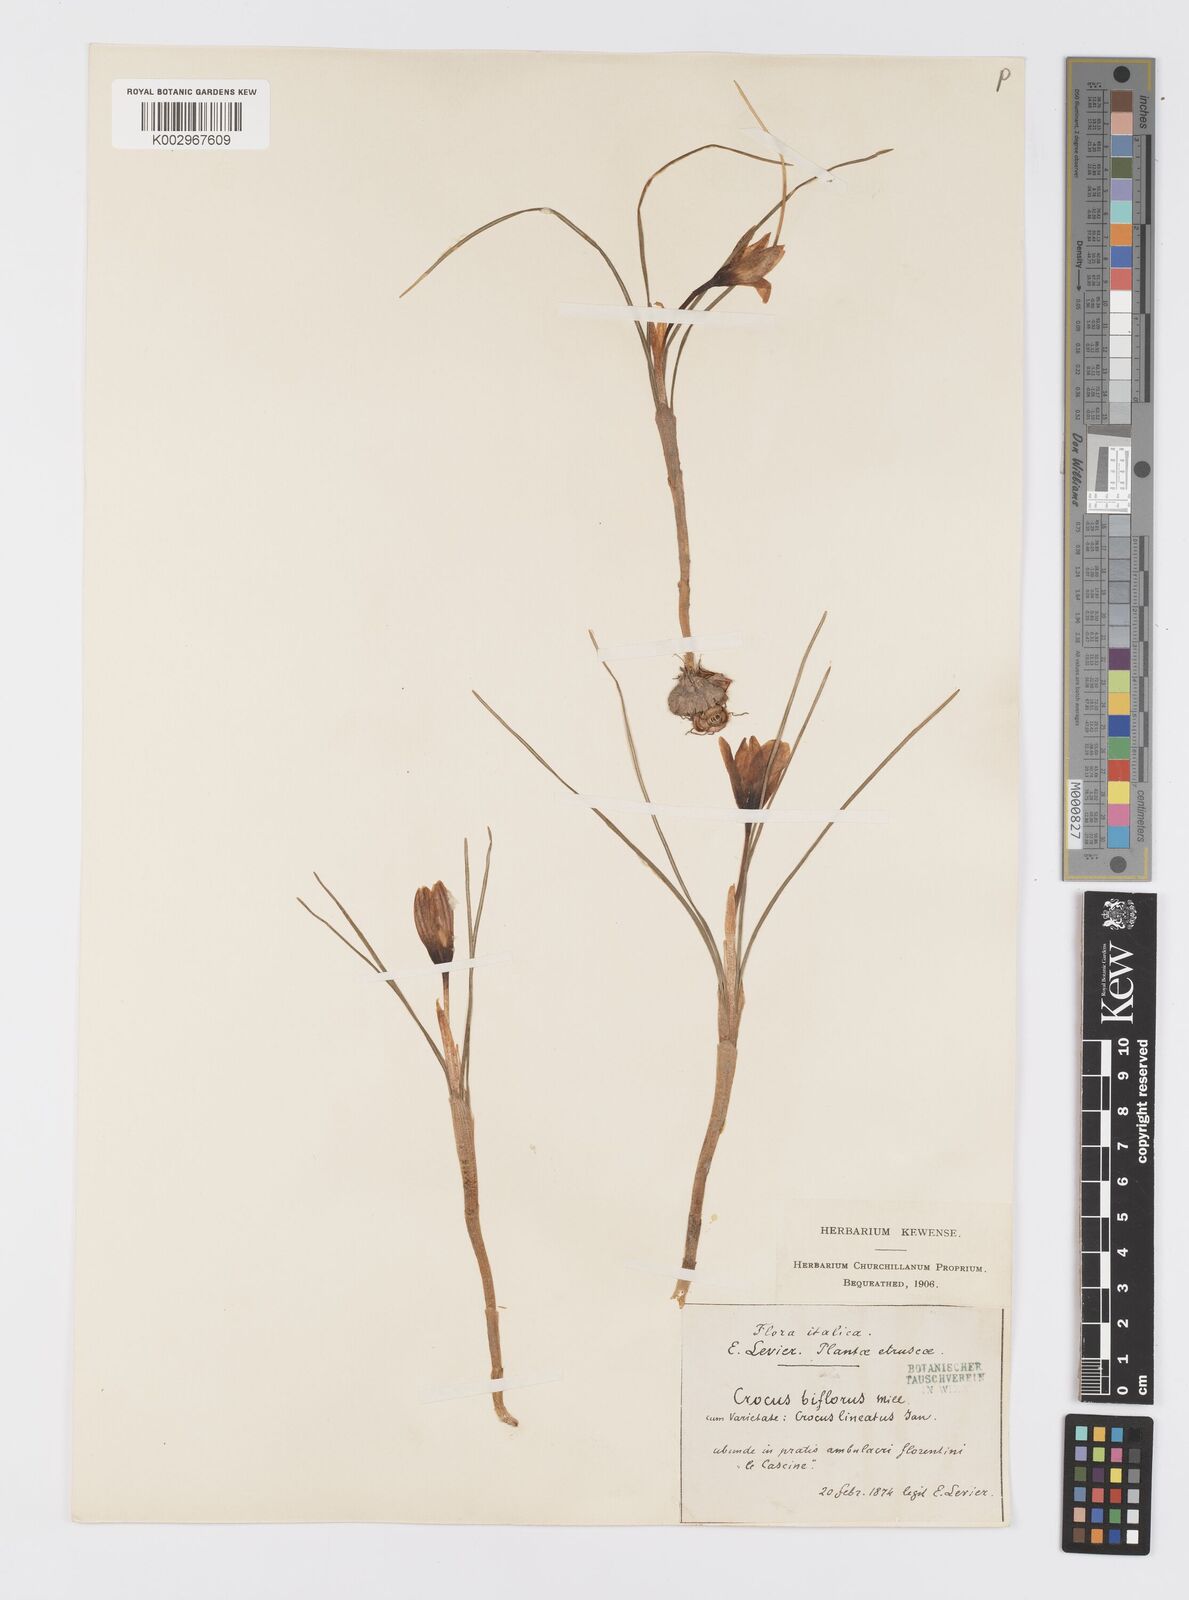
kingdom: Plantae
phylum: Tracheophyta
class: Liliopsida
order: Asparagales
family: Iridaceae
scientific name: Iridaceae
